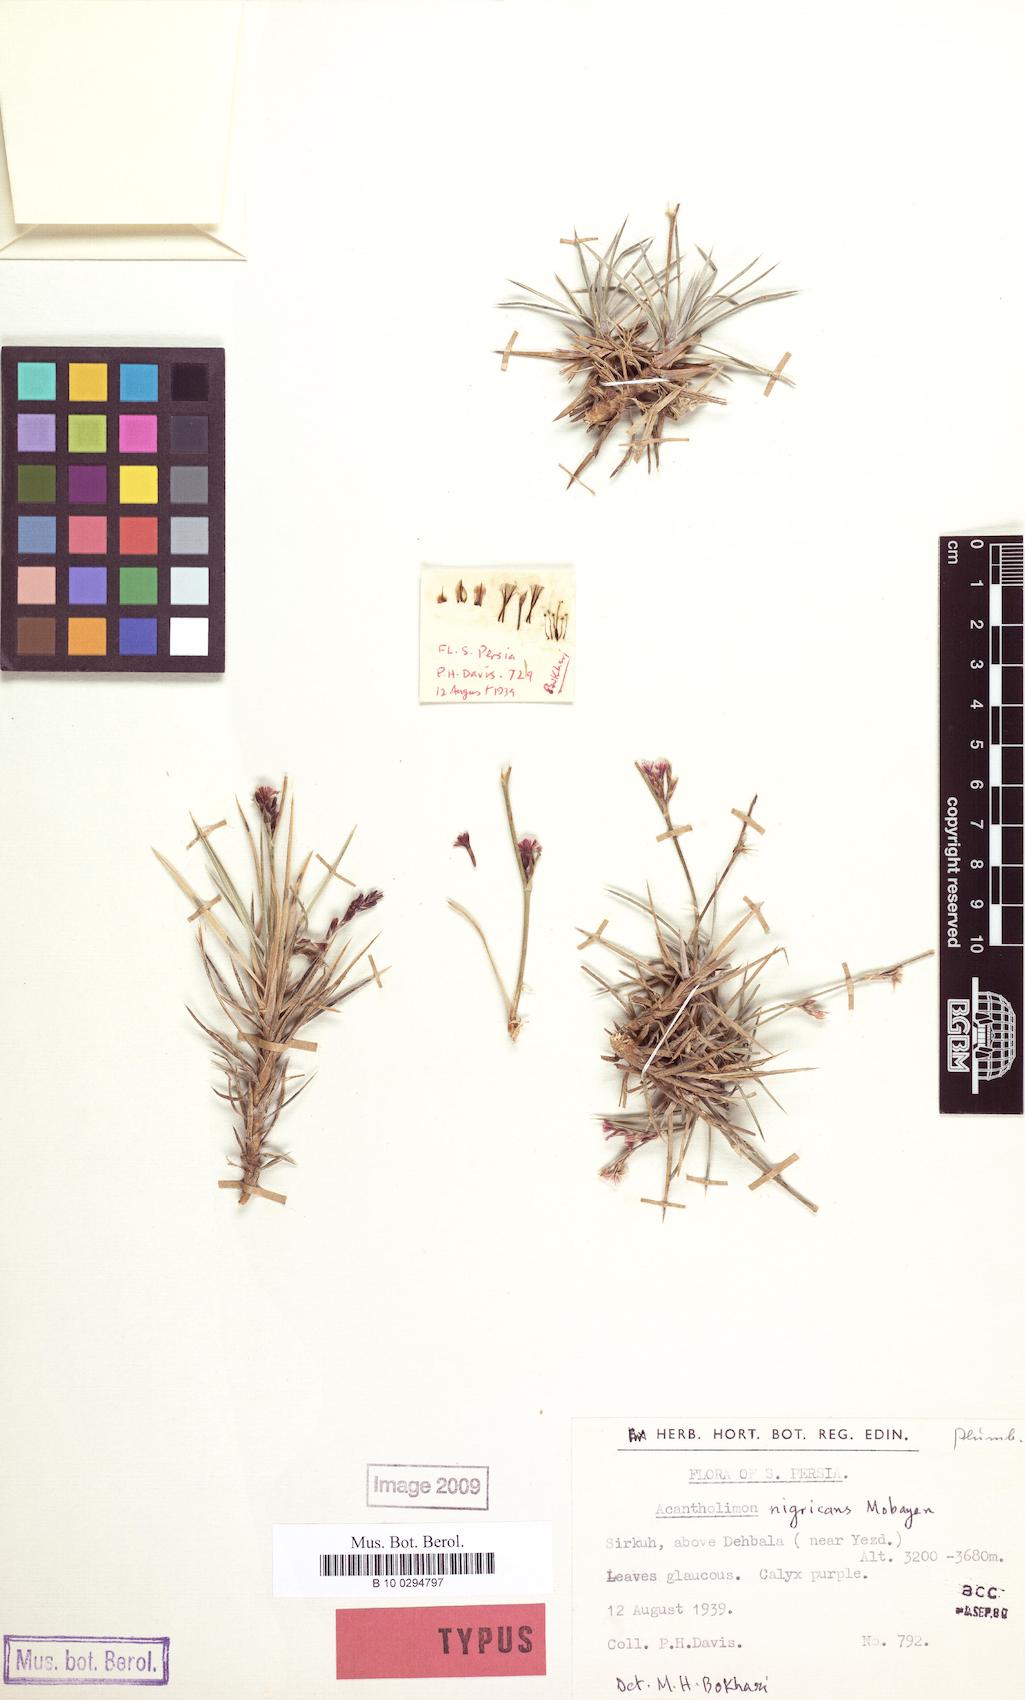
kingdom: Plantae
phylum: Tracheophyta
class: Magnoliopsida
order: Caryophyllales
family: Plumbaginaceae
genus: Acantholimon
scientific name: Acantholimon nigricans
